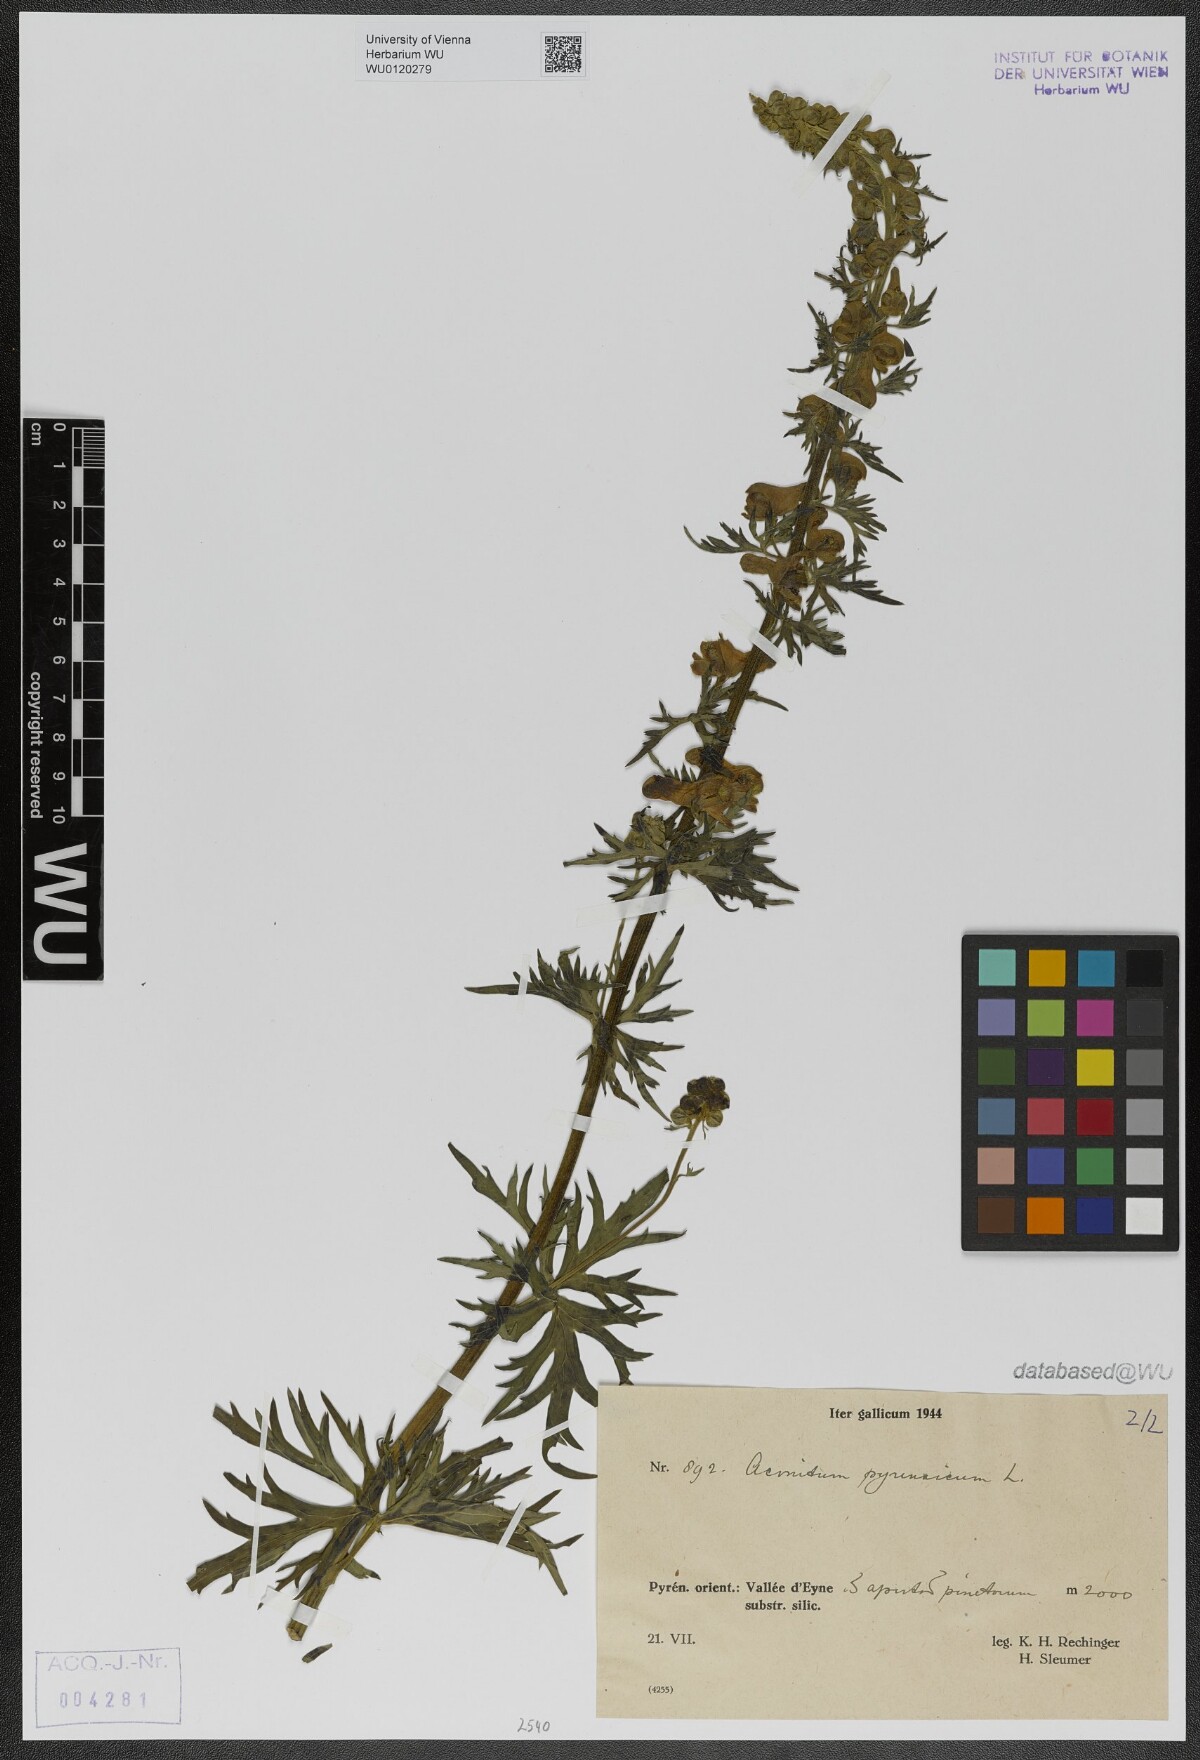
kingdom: Plantae
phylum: Tracheophyta
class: Magnoliopsida
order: Ranunculales
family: Ranunculaceae
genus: Aconitum
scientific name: Aconitum lycoctonum
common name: Wolf's-bane
